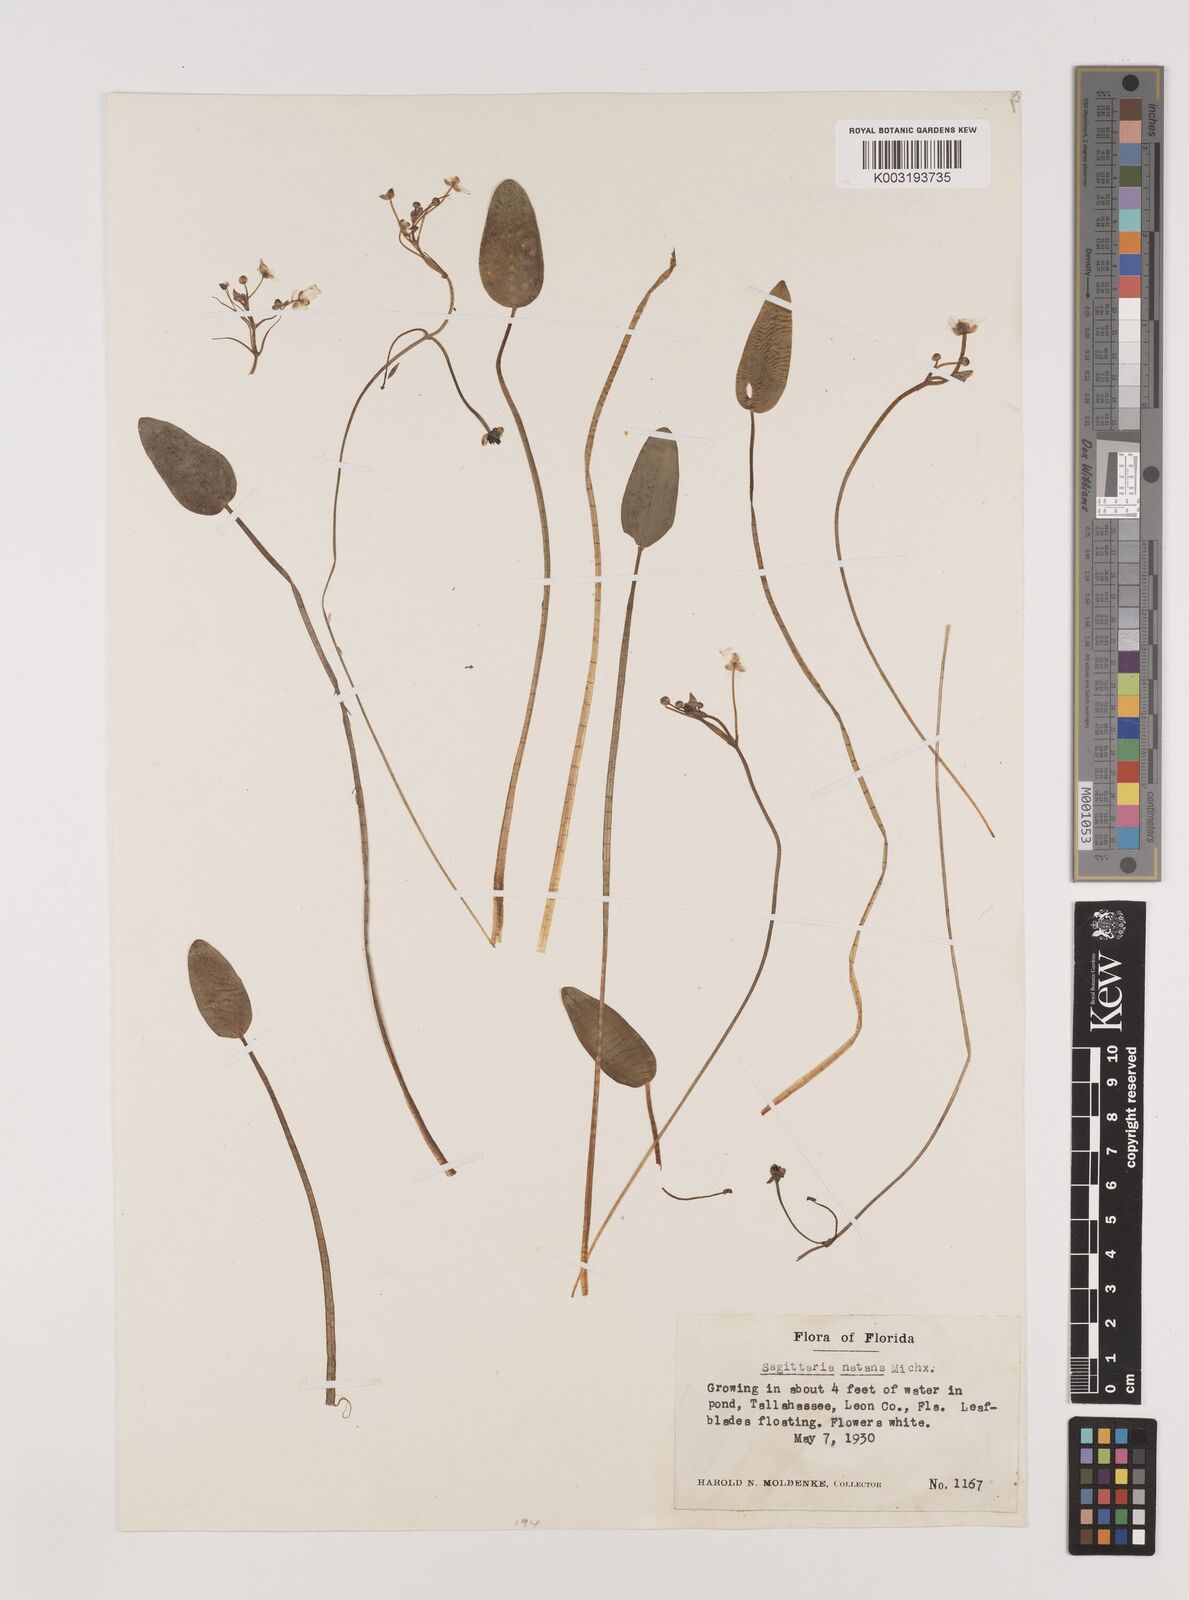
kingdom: Plantae
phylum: Tracheophyta
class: Liliopsida
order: Alismatales
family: Alismataceae
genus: Sagittaria
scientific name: Sagittaria subulata
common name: Narrow-leaved arrowhead
